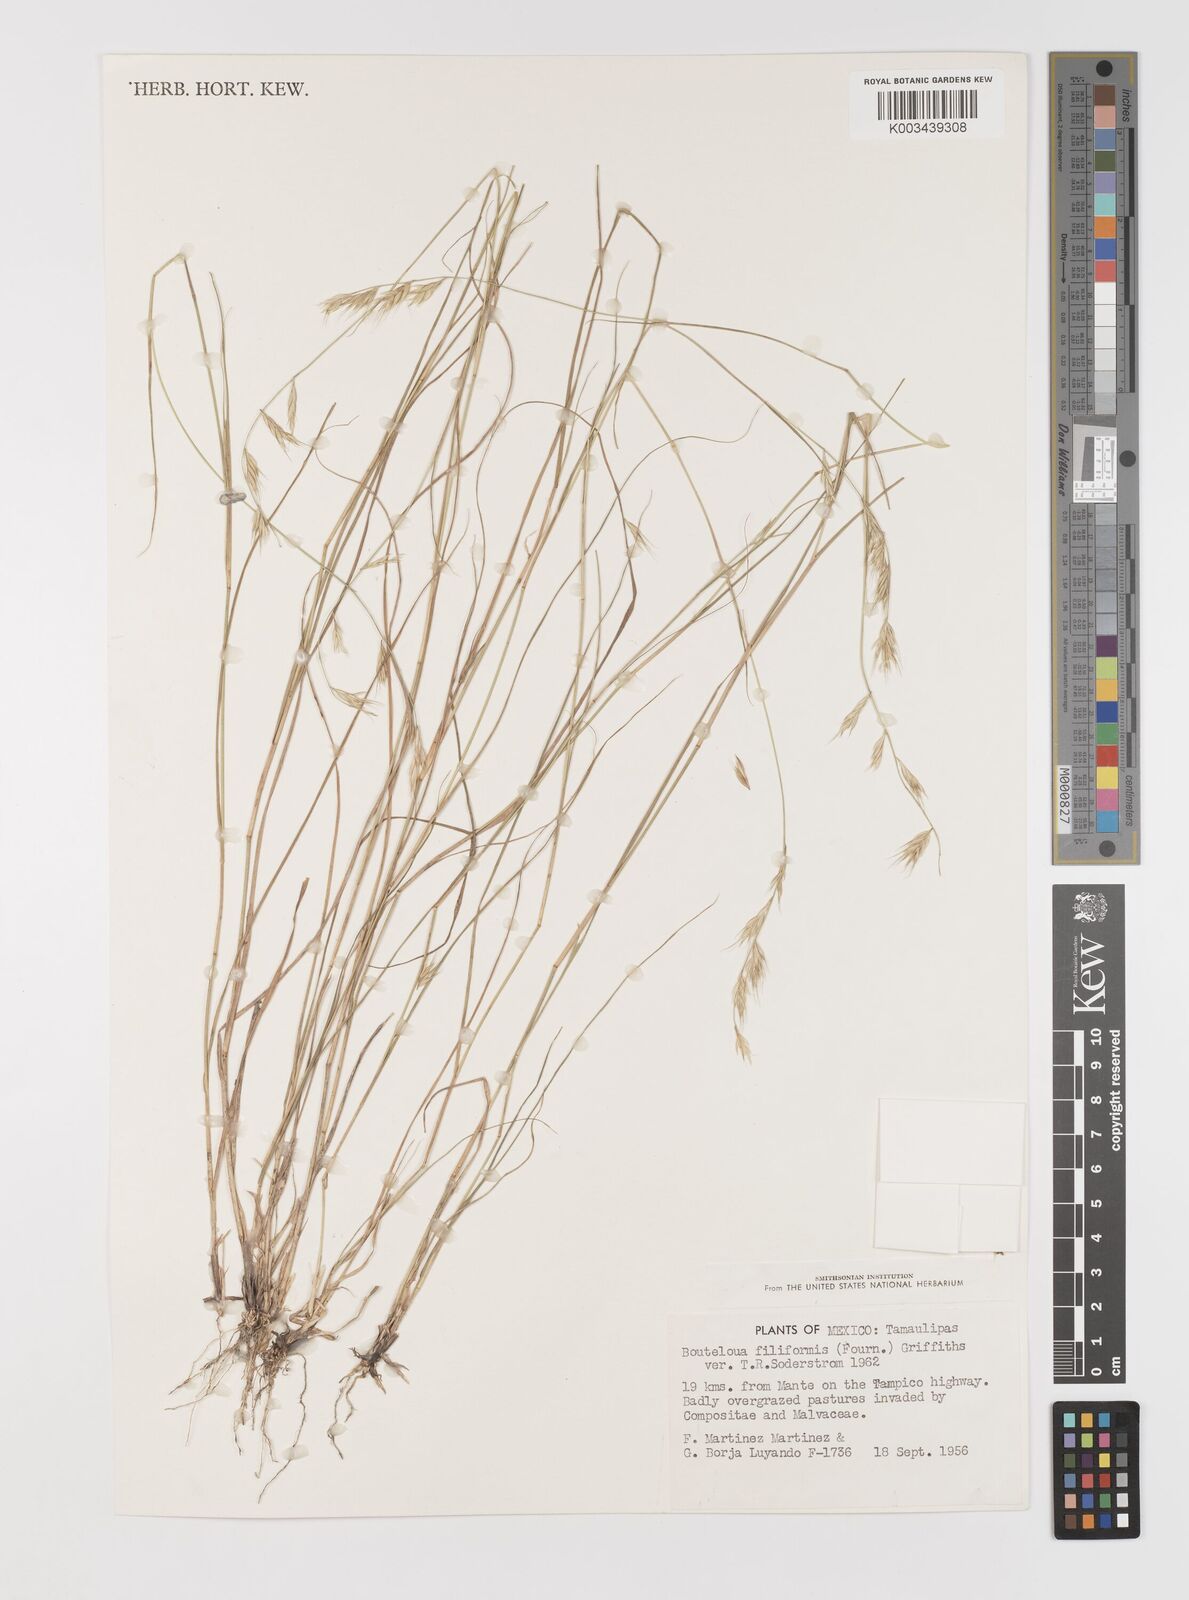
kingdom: Plantae
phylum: Tracheophyta
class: Liliopsida
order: Poales
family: Poaceae
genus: Bouteloua
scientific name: Bouteloua repens
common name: Slender grama
